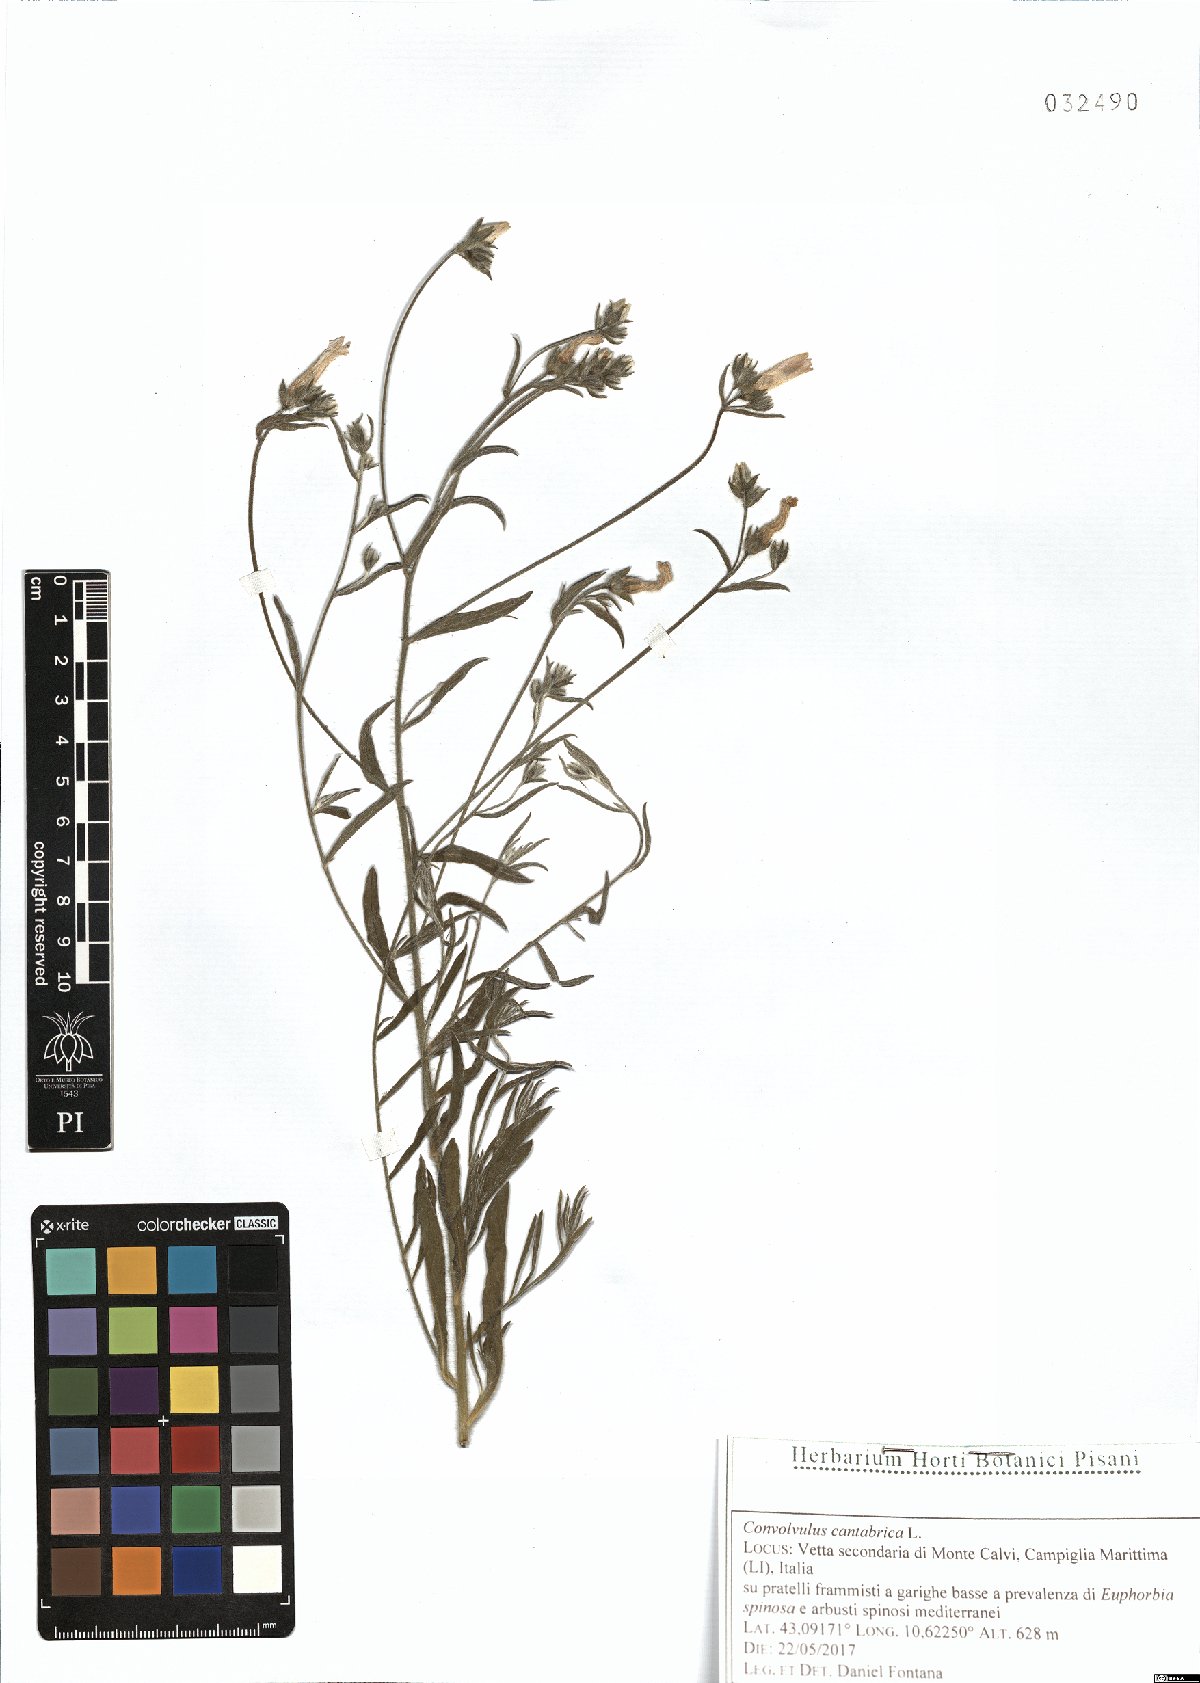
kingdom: Plantae
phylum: Tracheophyta
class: Magnoliopsida
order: Solanales
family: Convolvulaceae
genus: Convolvulus
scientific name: Convolvulus cantabrica
